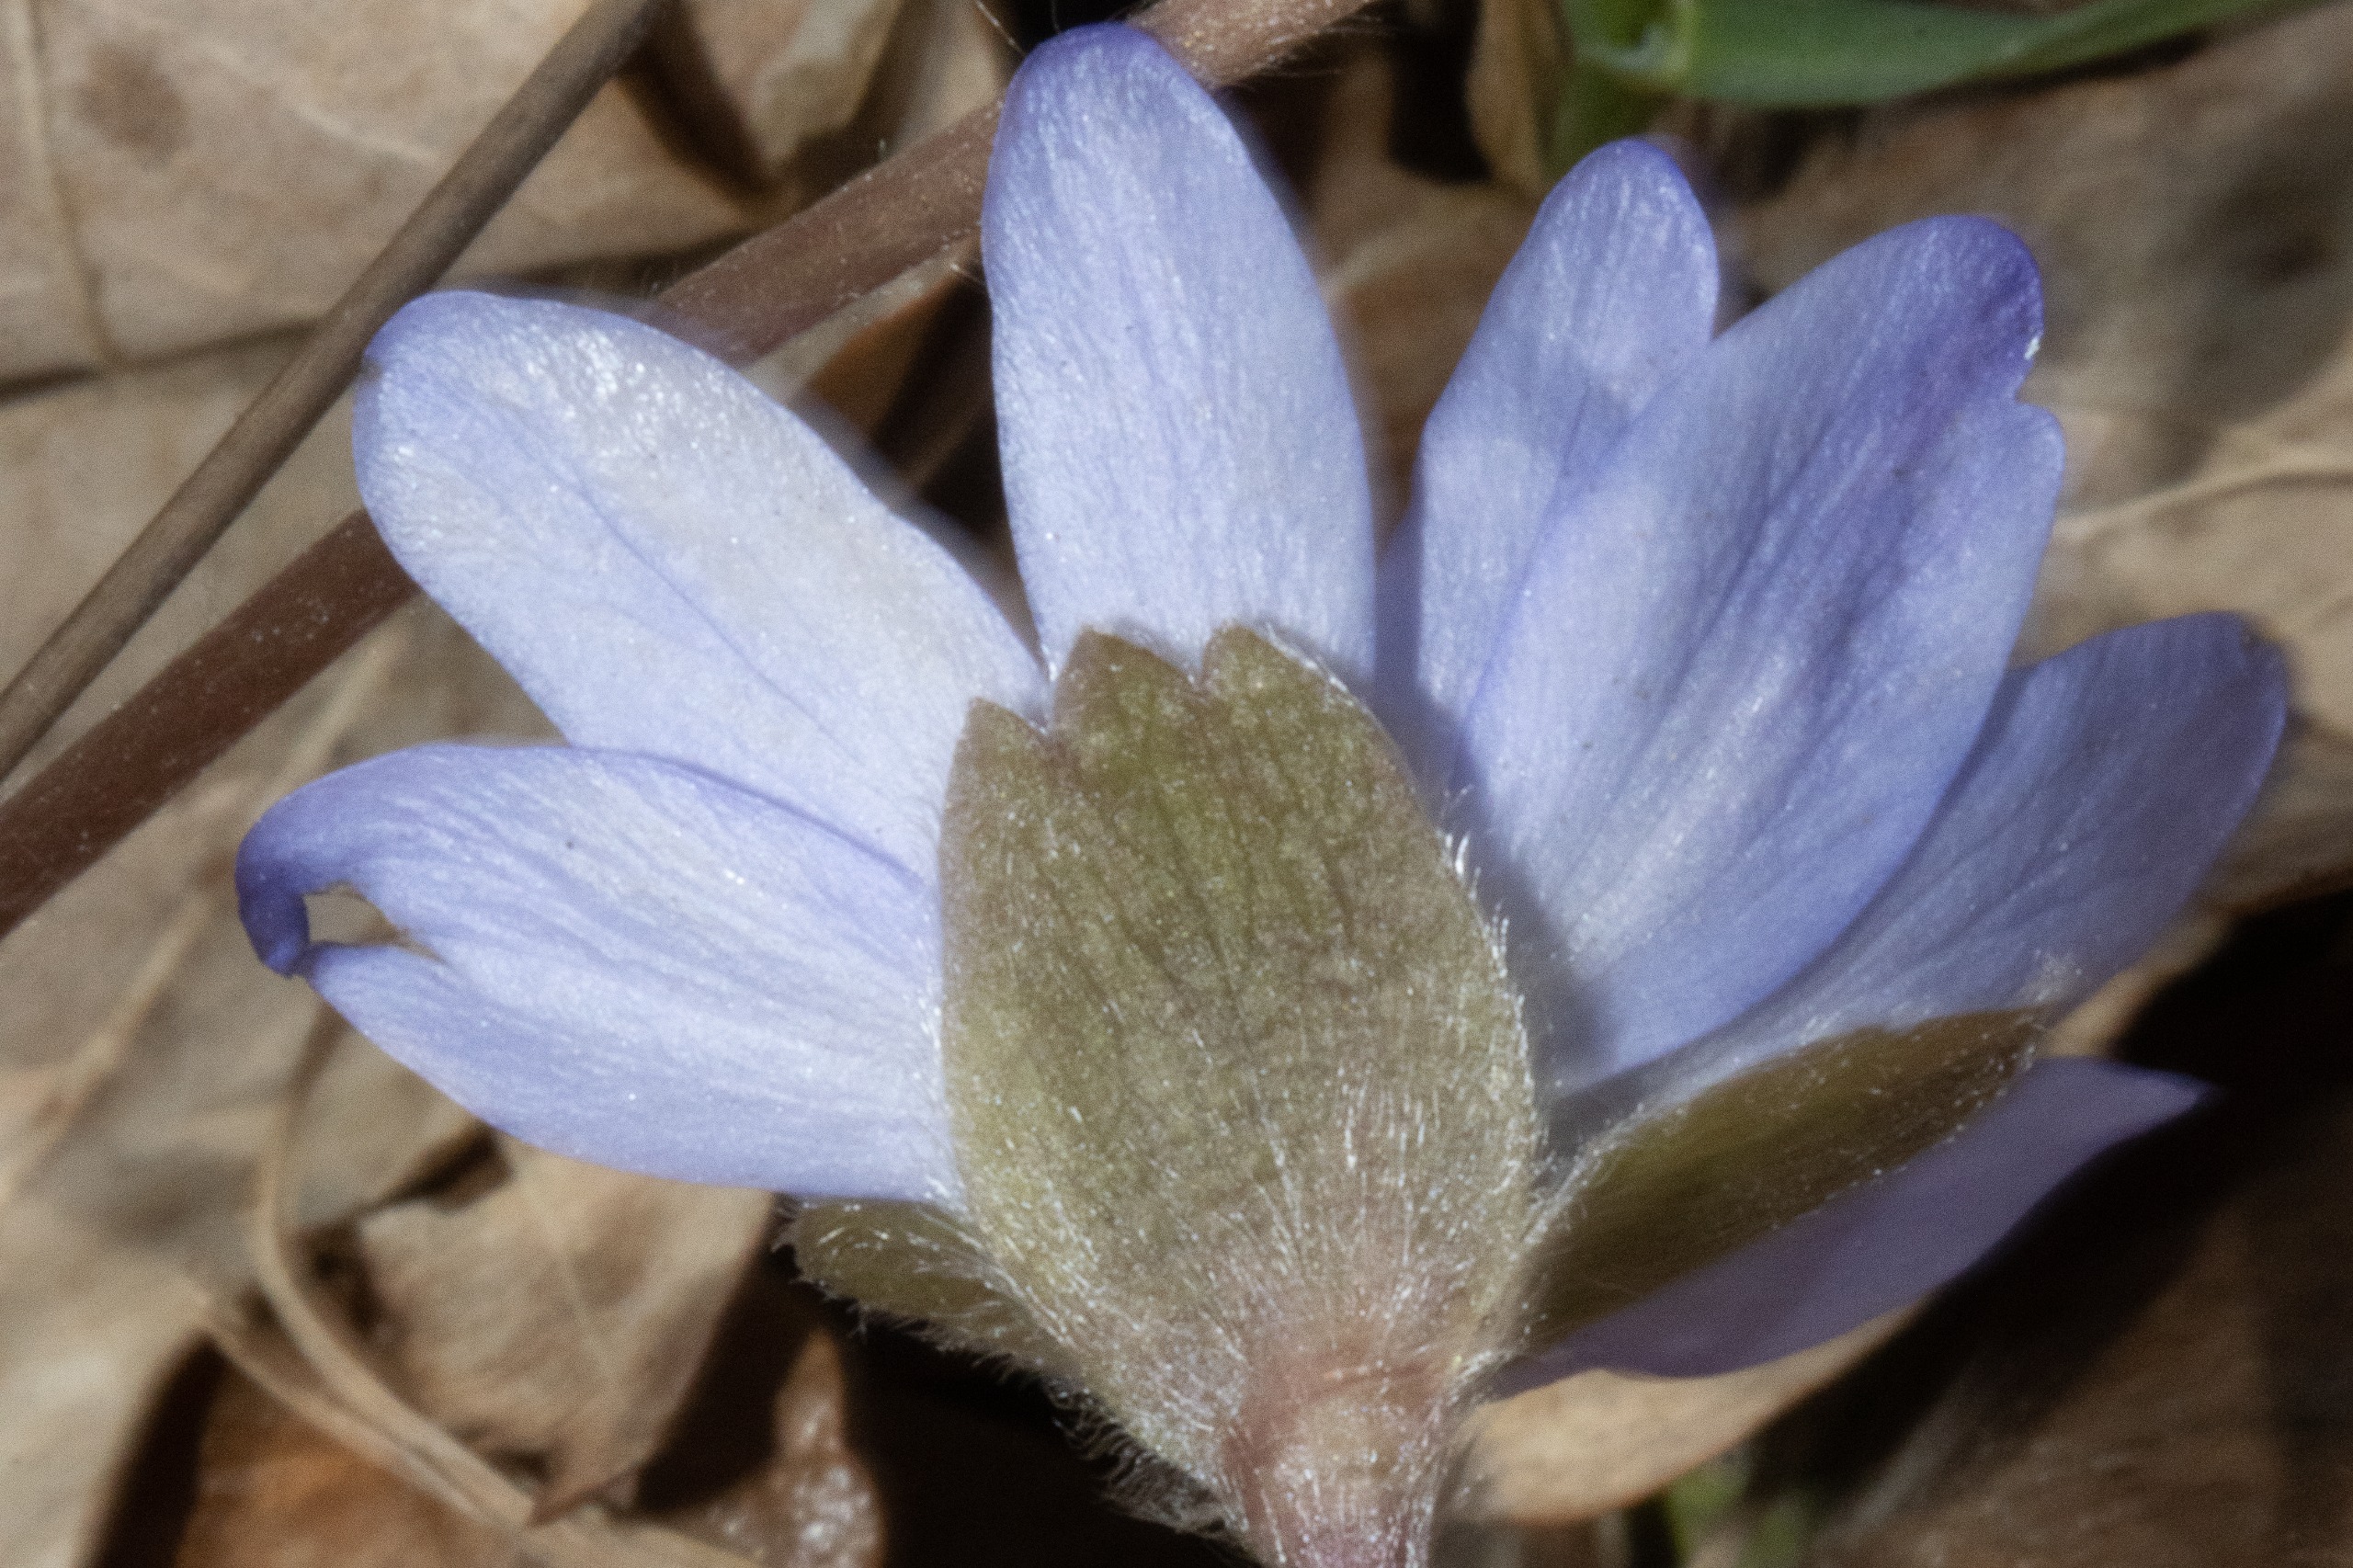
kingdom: Plantae
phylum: Tracheophyta
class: Magnoliopsida
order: Ranunculales
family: Ranunculaceae
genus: Hepatica
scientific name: Hepatica transsilvanica
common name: Ungarsk anemone
